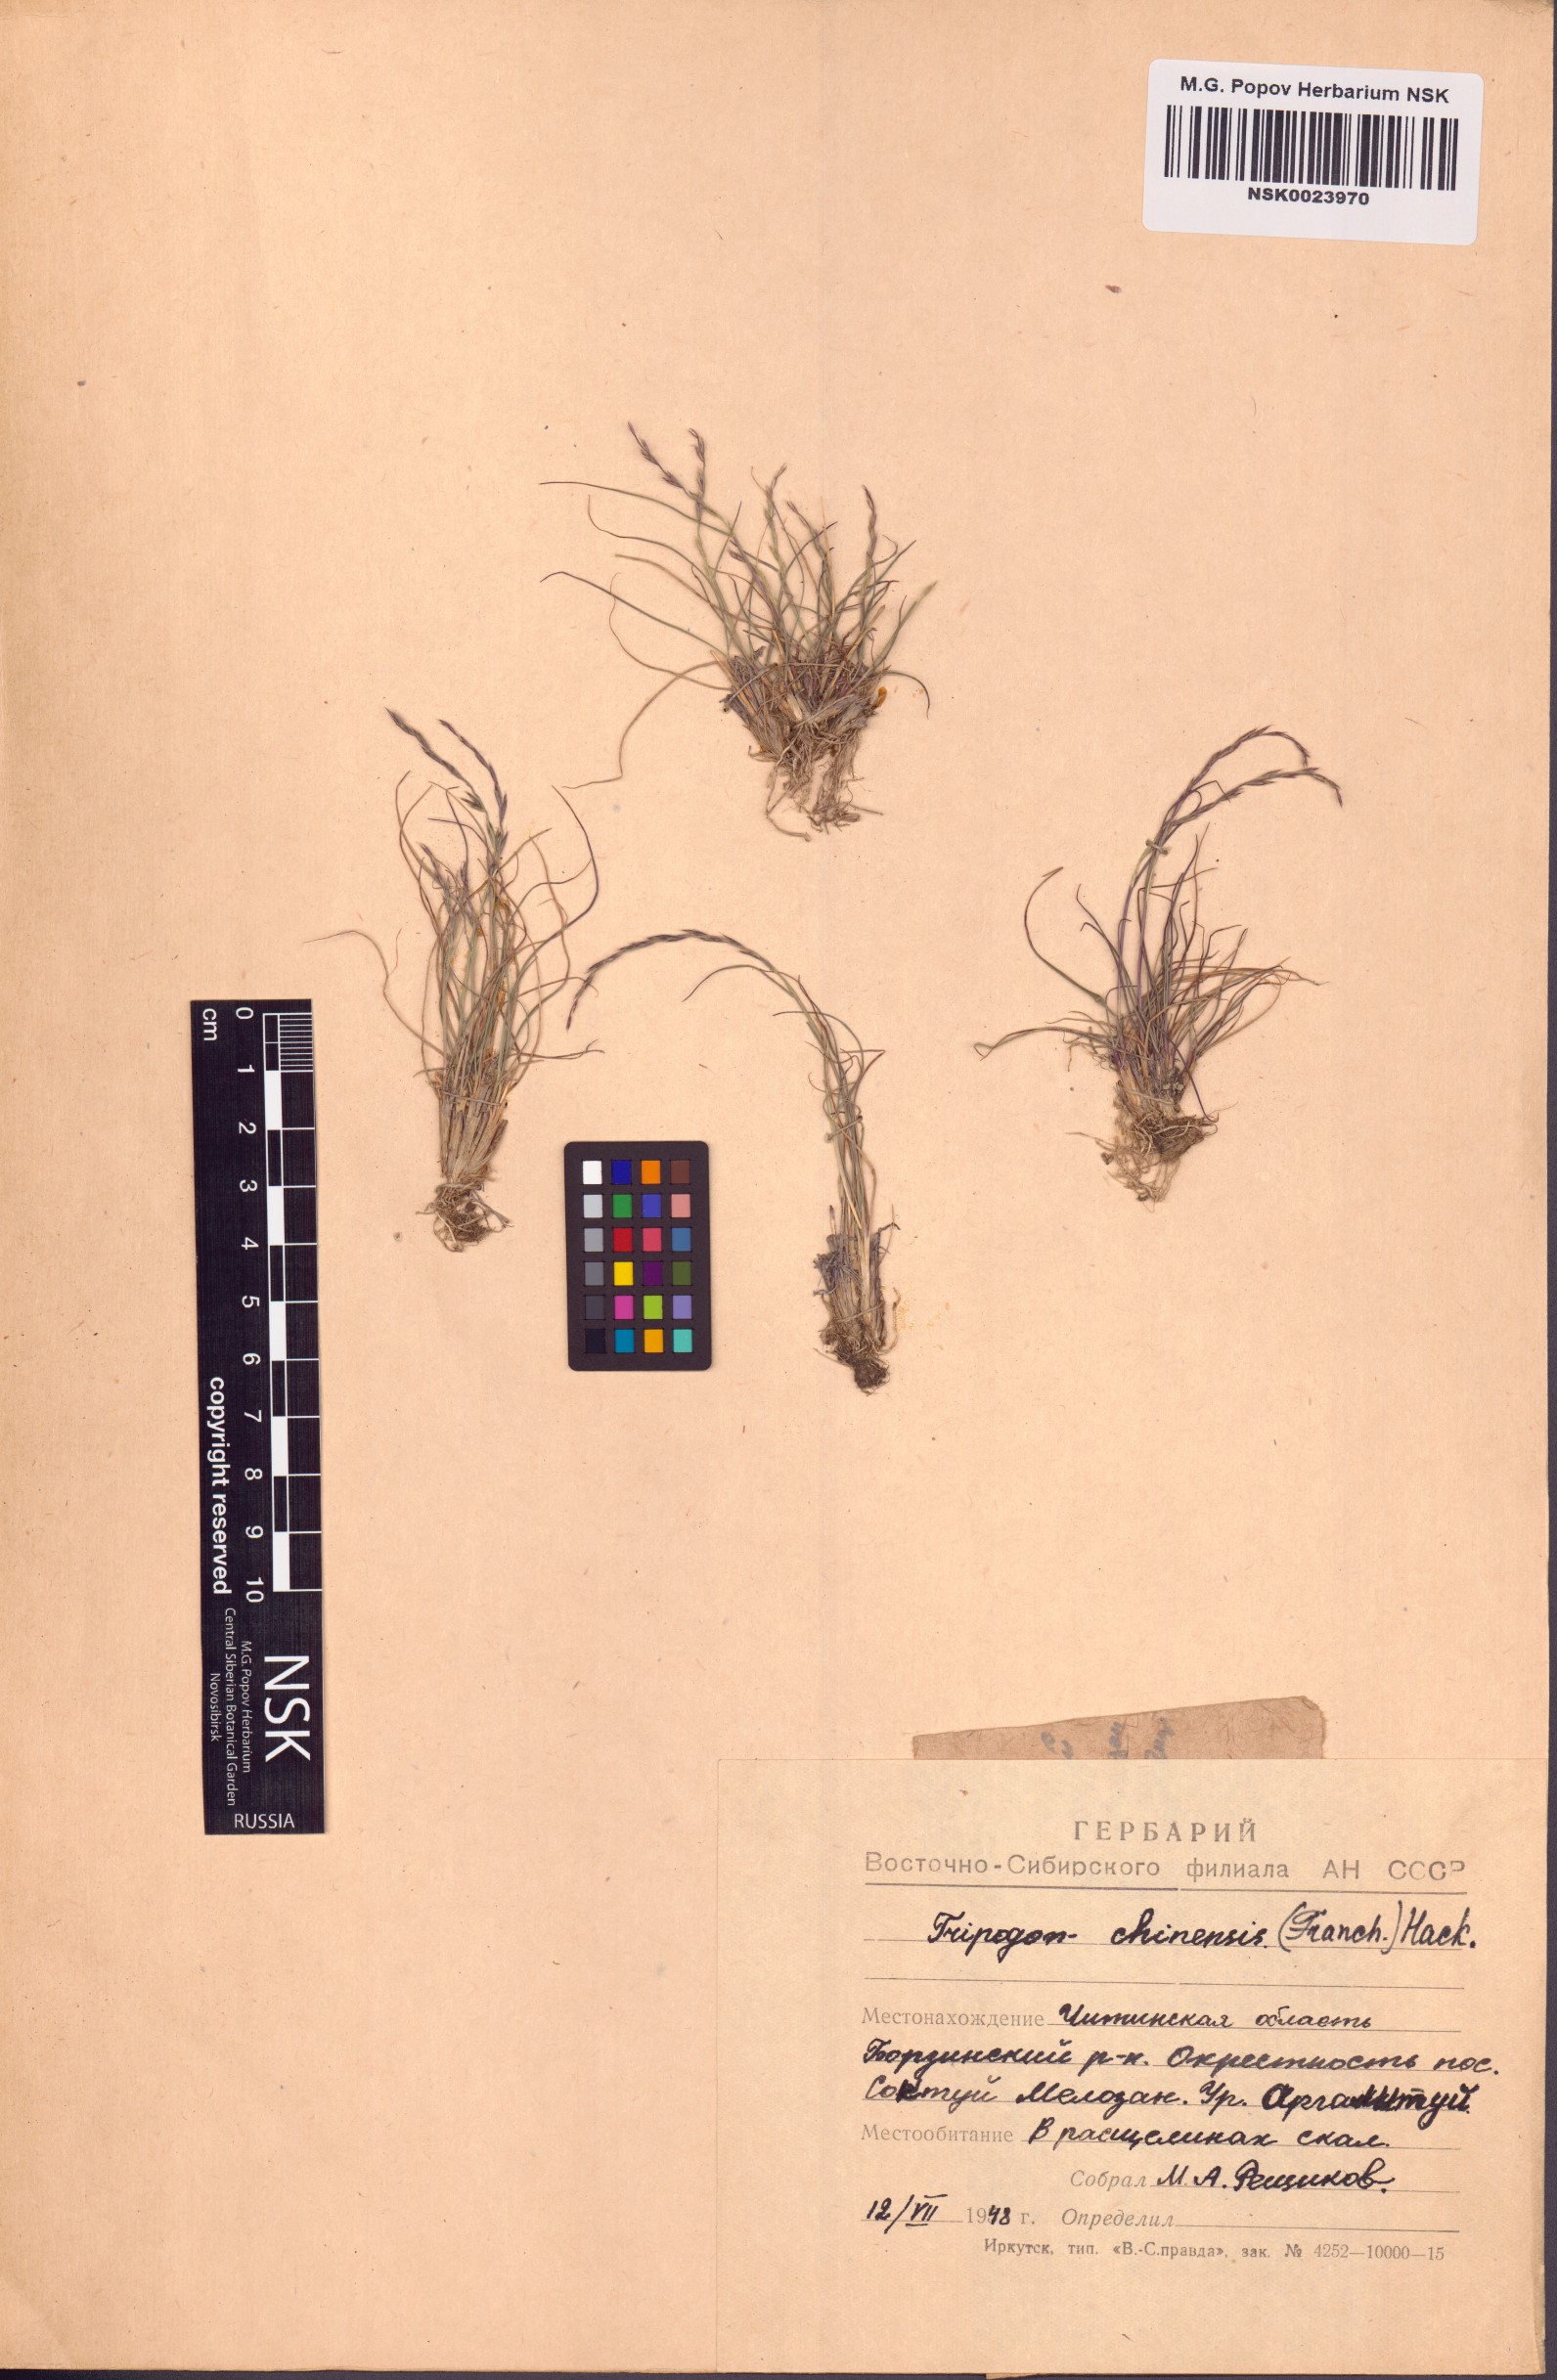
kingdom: Plantae
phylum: Tracheophyta
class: Liliopsida
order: Poales
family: Poaceae
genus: Tripogon
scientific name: Tripogon chinensis
